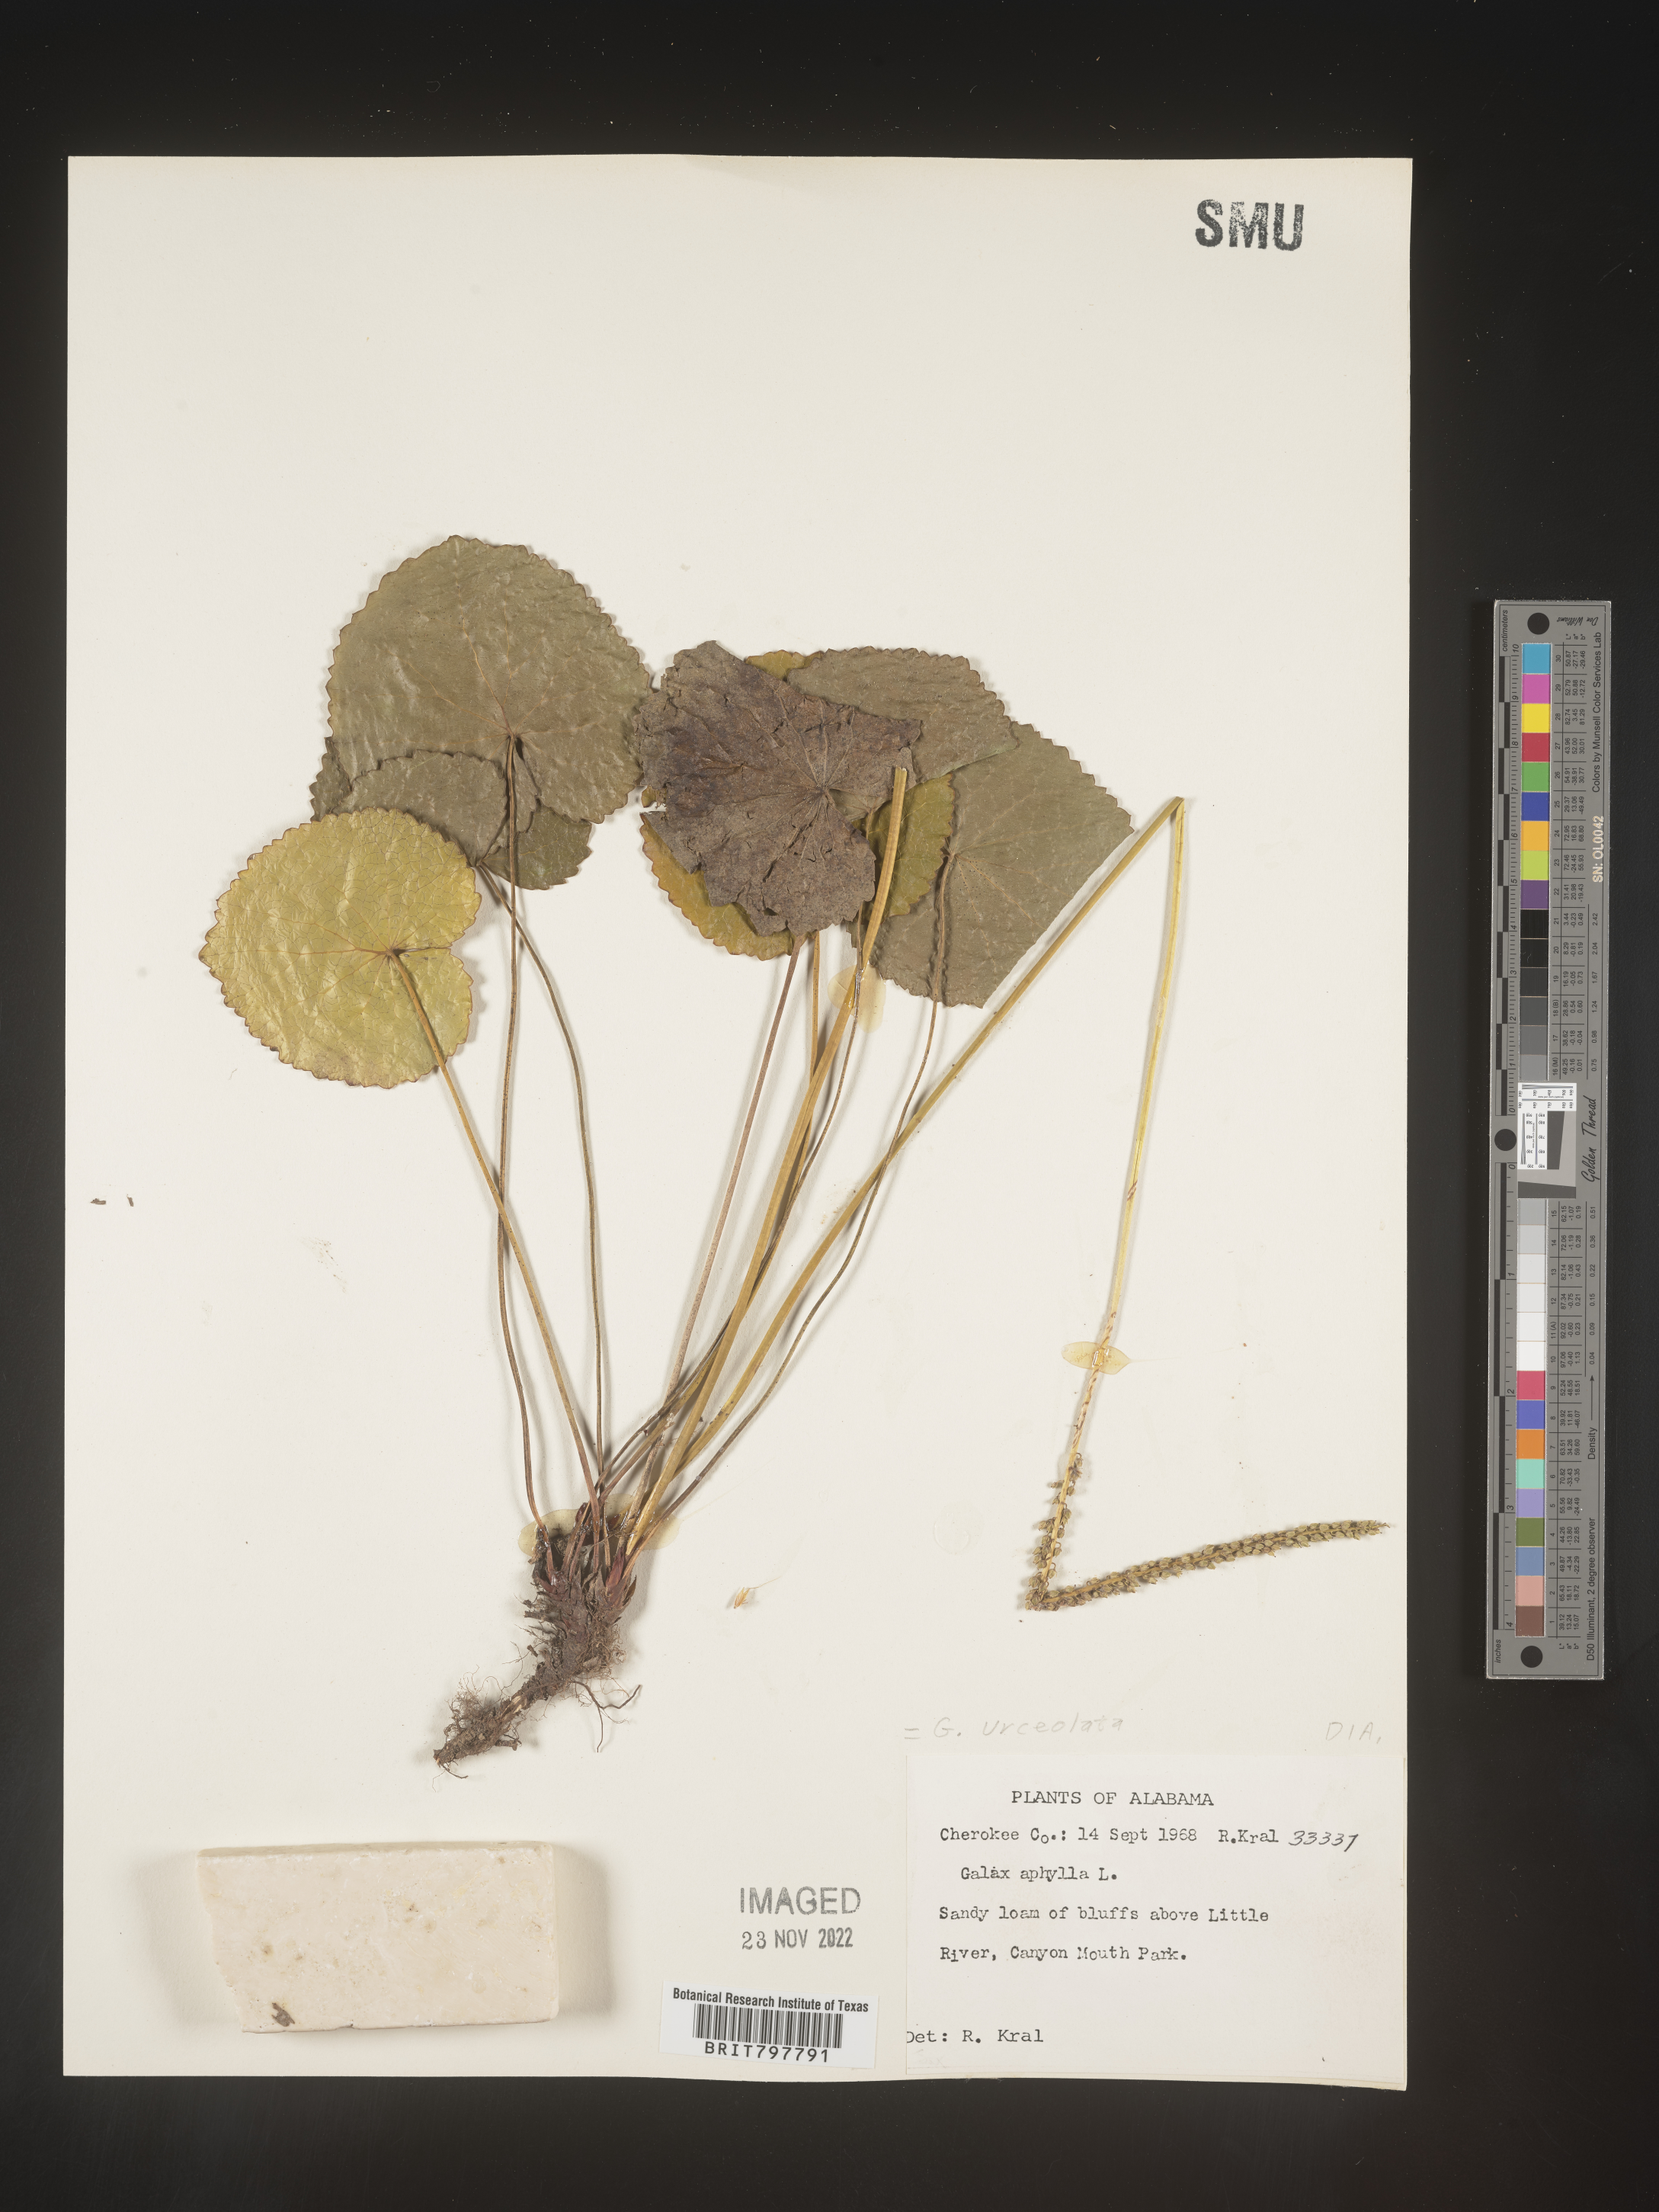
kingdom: Plantae
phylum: Tracheophyta
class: Magnoliopsida
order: Ericales
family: Diapensiaceae
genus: Galax
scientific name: Galax
